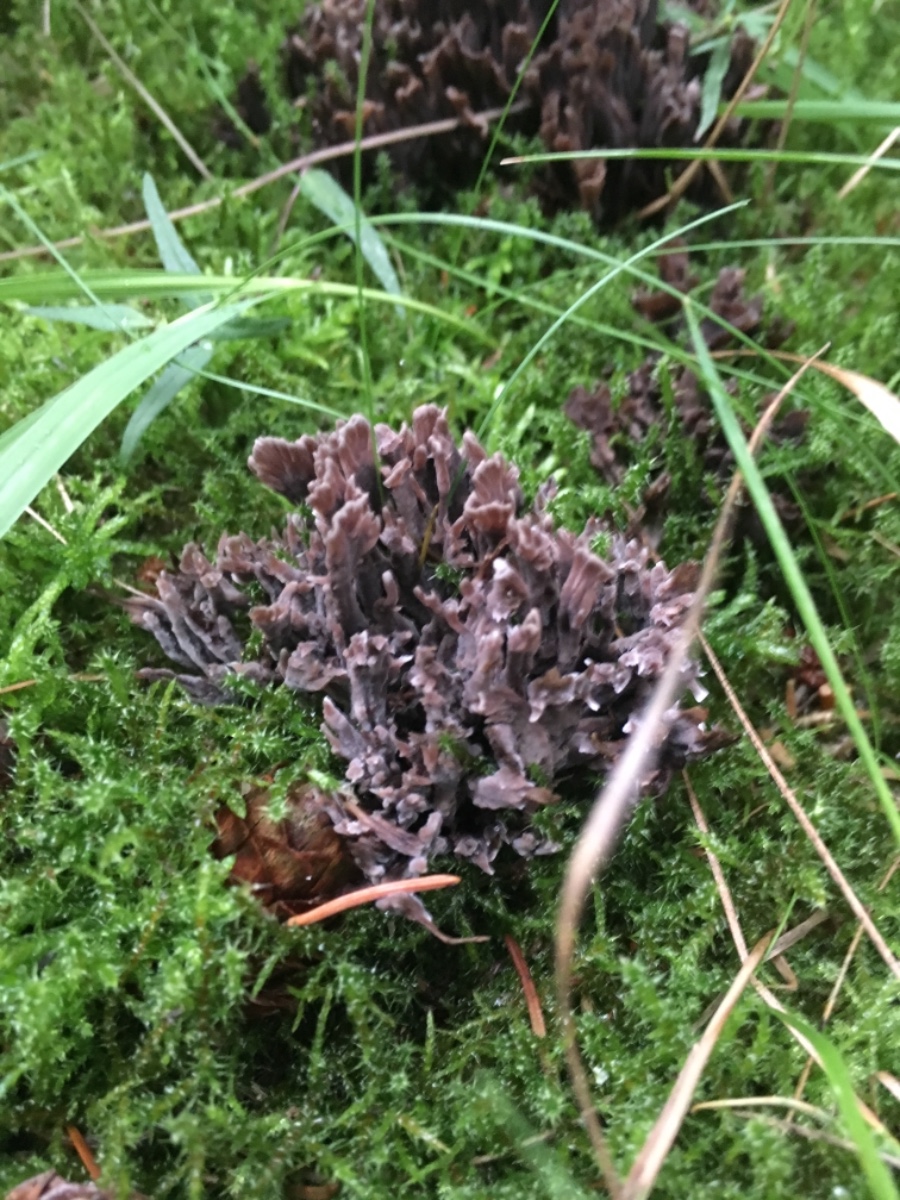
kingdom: Fungi
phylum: Basidiomycota
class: Agaricomycetes
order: Thelephorales
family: Thelephoraceae
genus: Thelephora
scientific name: Thelephora palmata
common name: grenet frynsesvamp
